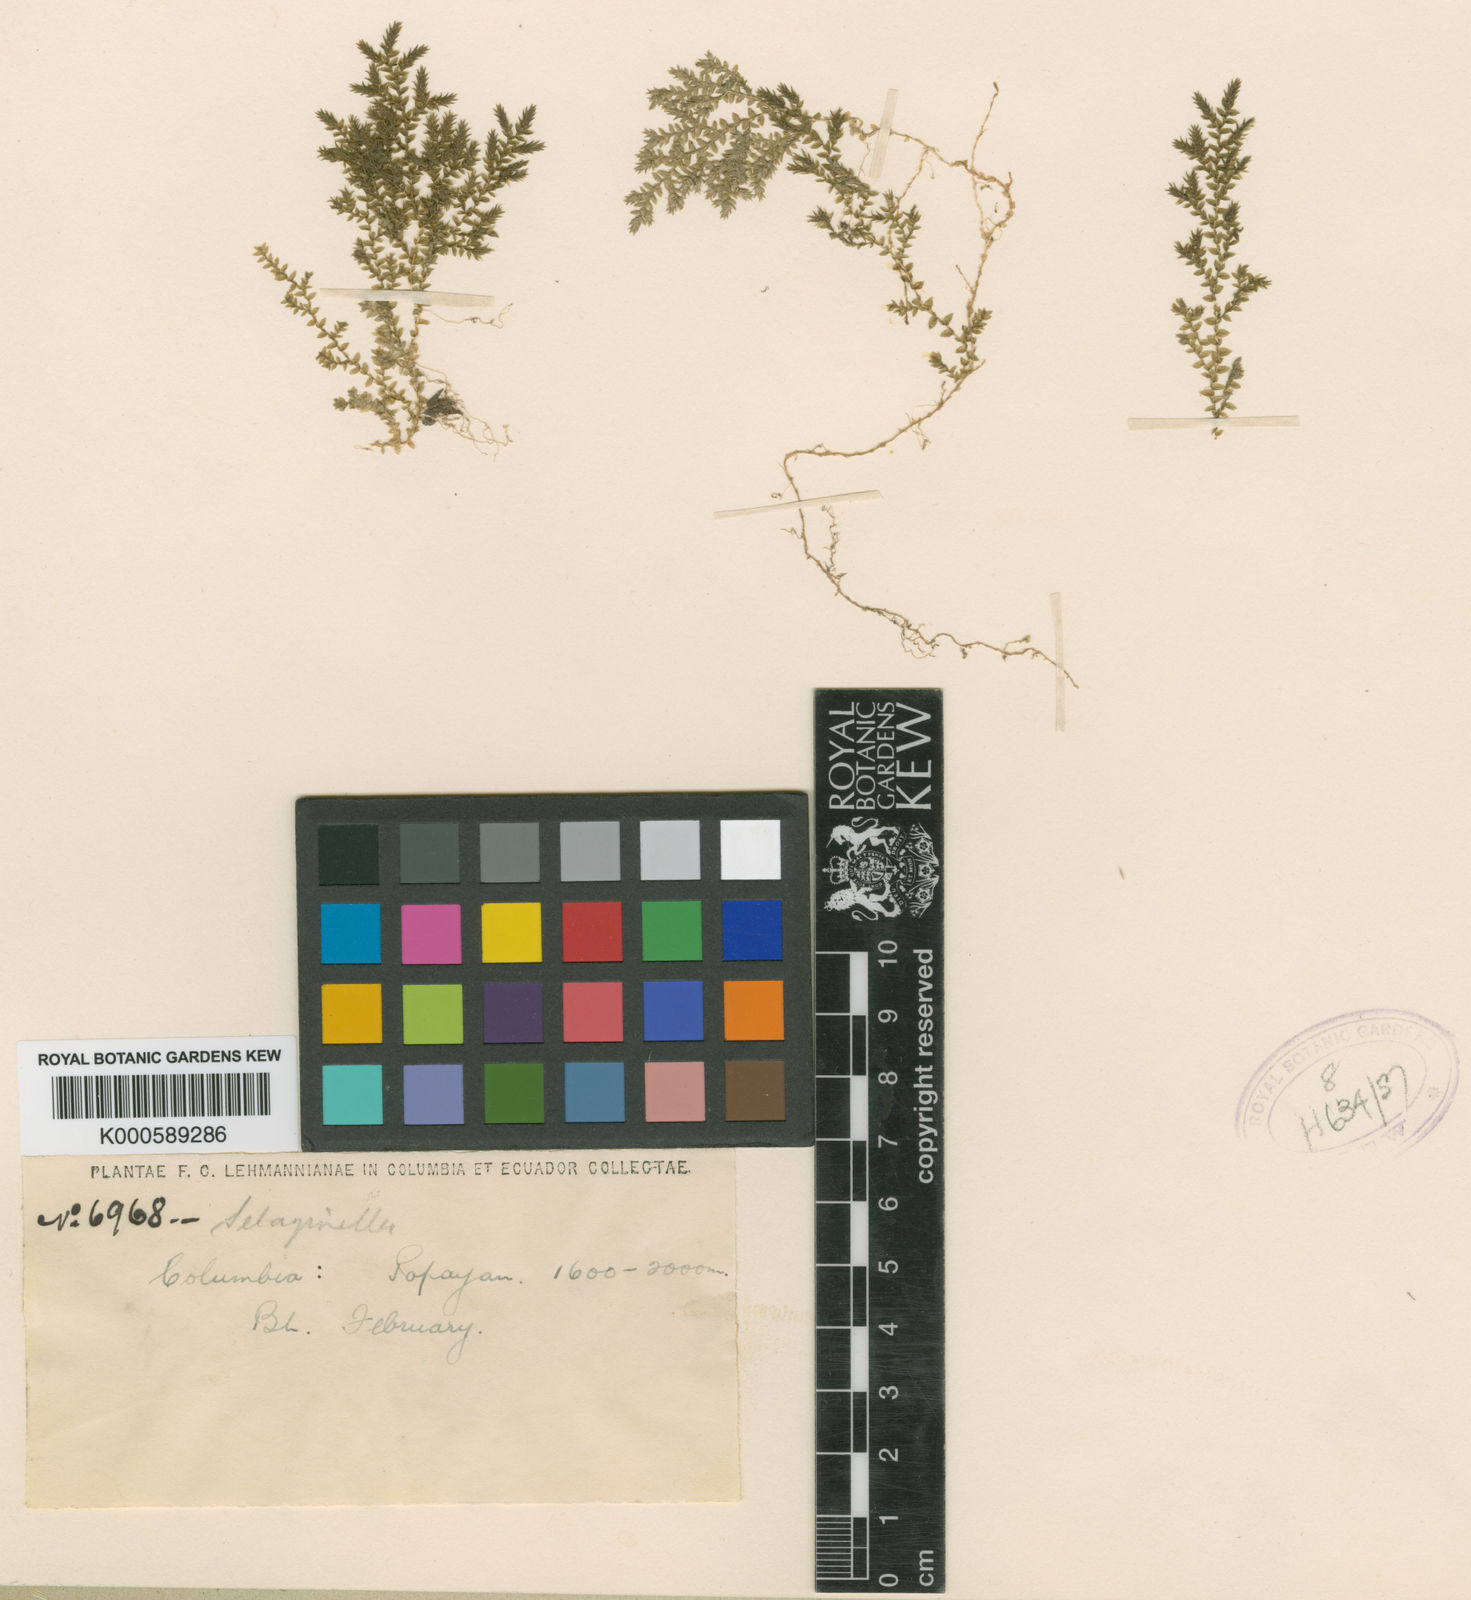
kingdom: Plantae
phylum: Tracheophyta
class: Lycopodiopsida
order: Selaginellales
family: Selaginellaceae
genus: Selaginella
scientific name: Selaginella popayanensis
